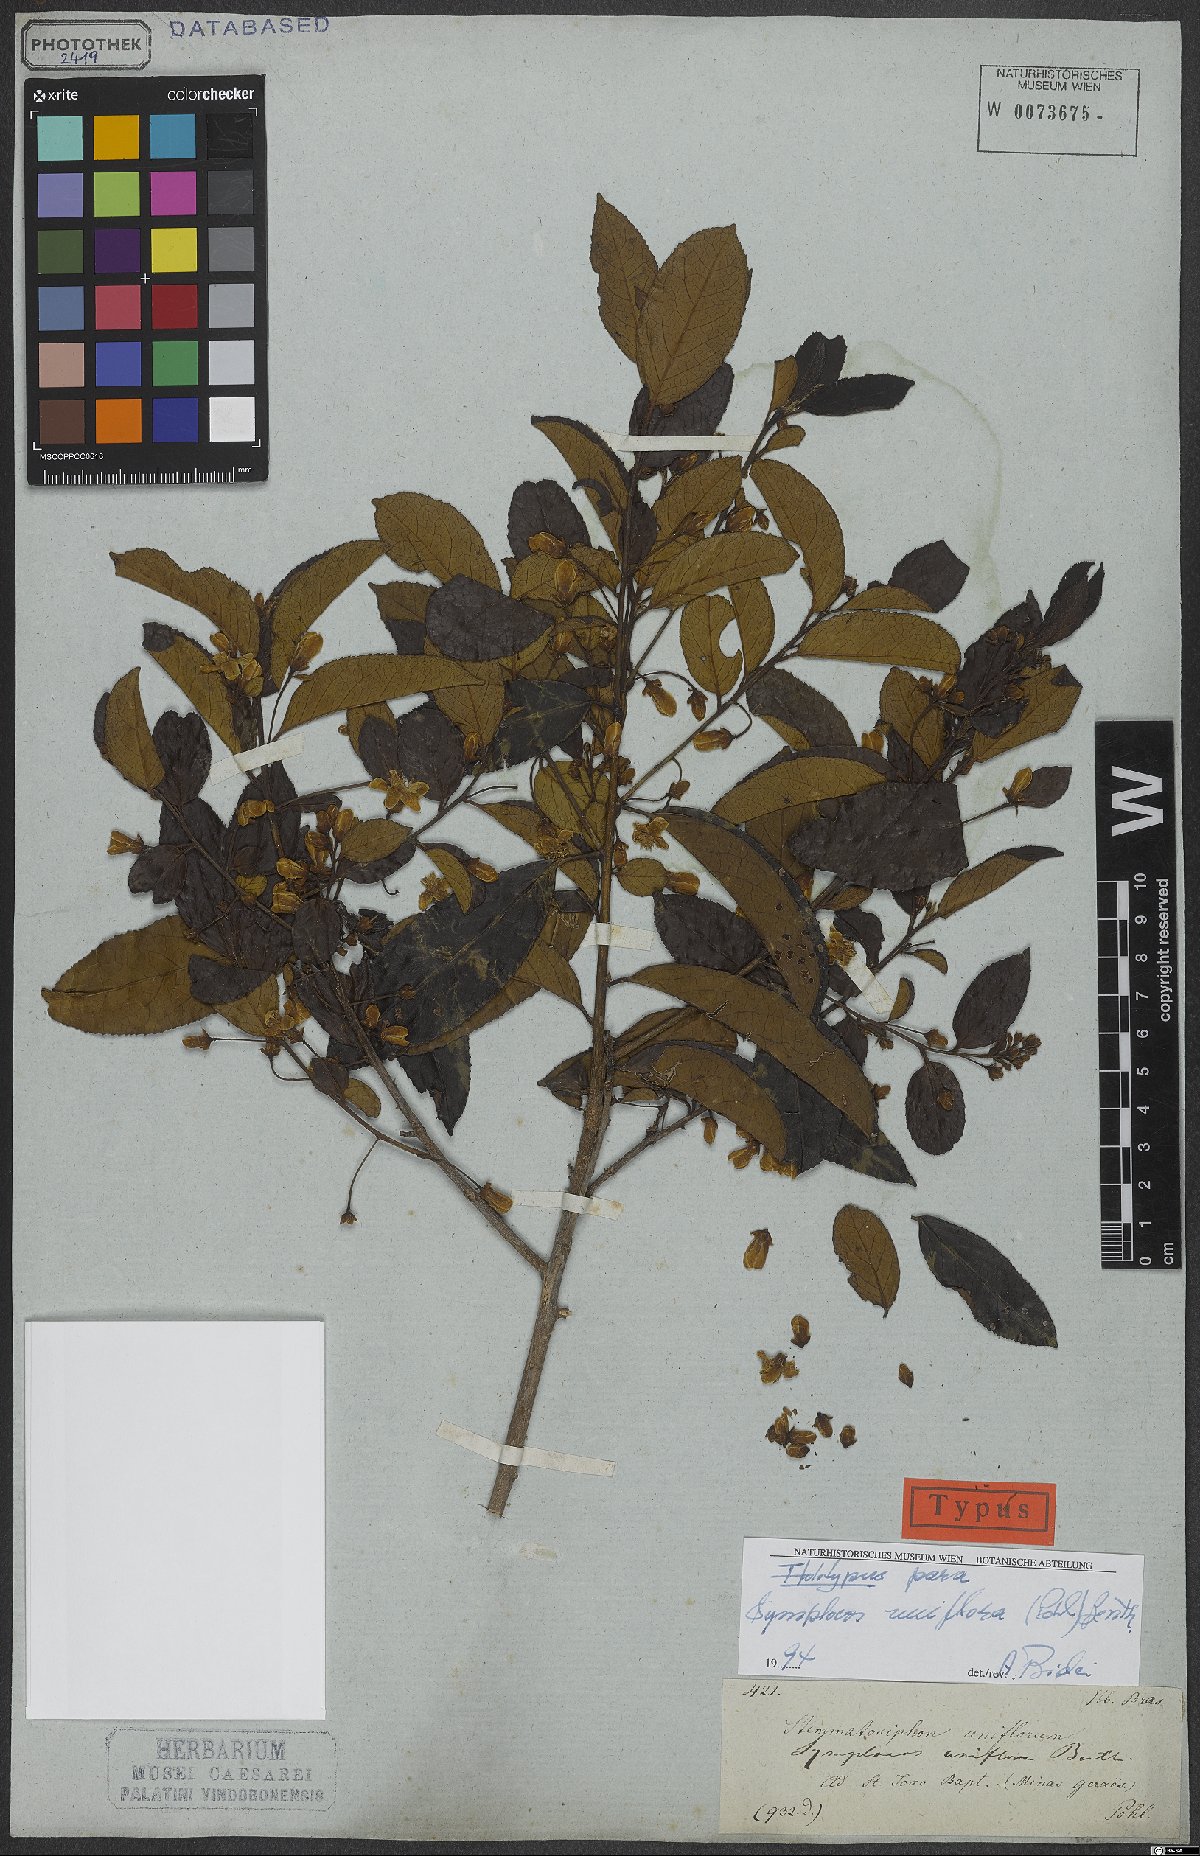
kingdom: Plantae
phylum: Tracheophyta
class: Magnoliopsida
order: Ericales
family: Symplocaceae
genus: Symplocos
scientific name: Symplocos uniflora
